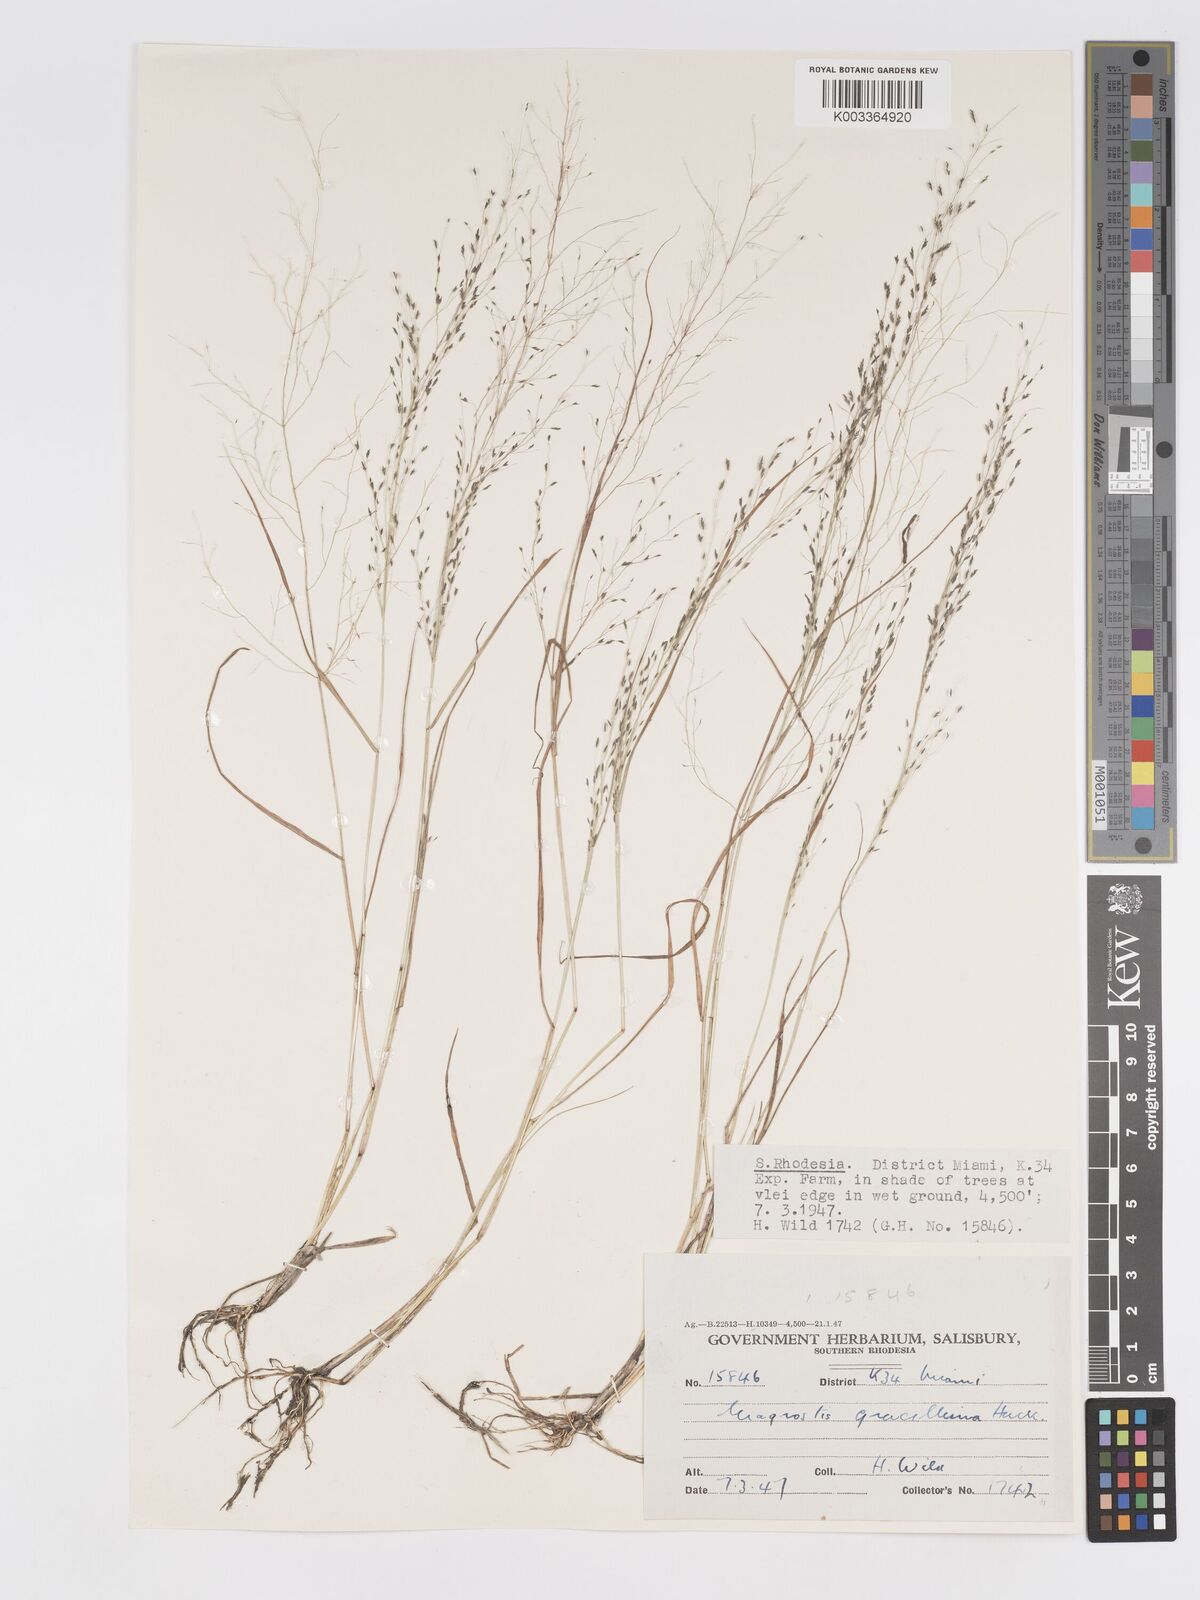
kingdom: Plantae
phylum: Tracheophyta
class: Liliopsida
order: Poales
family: Poaceae
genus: Eragrostis
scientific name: Eragrostis pilosa
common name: Indian lovegrass
